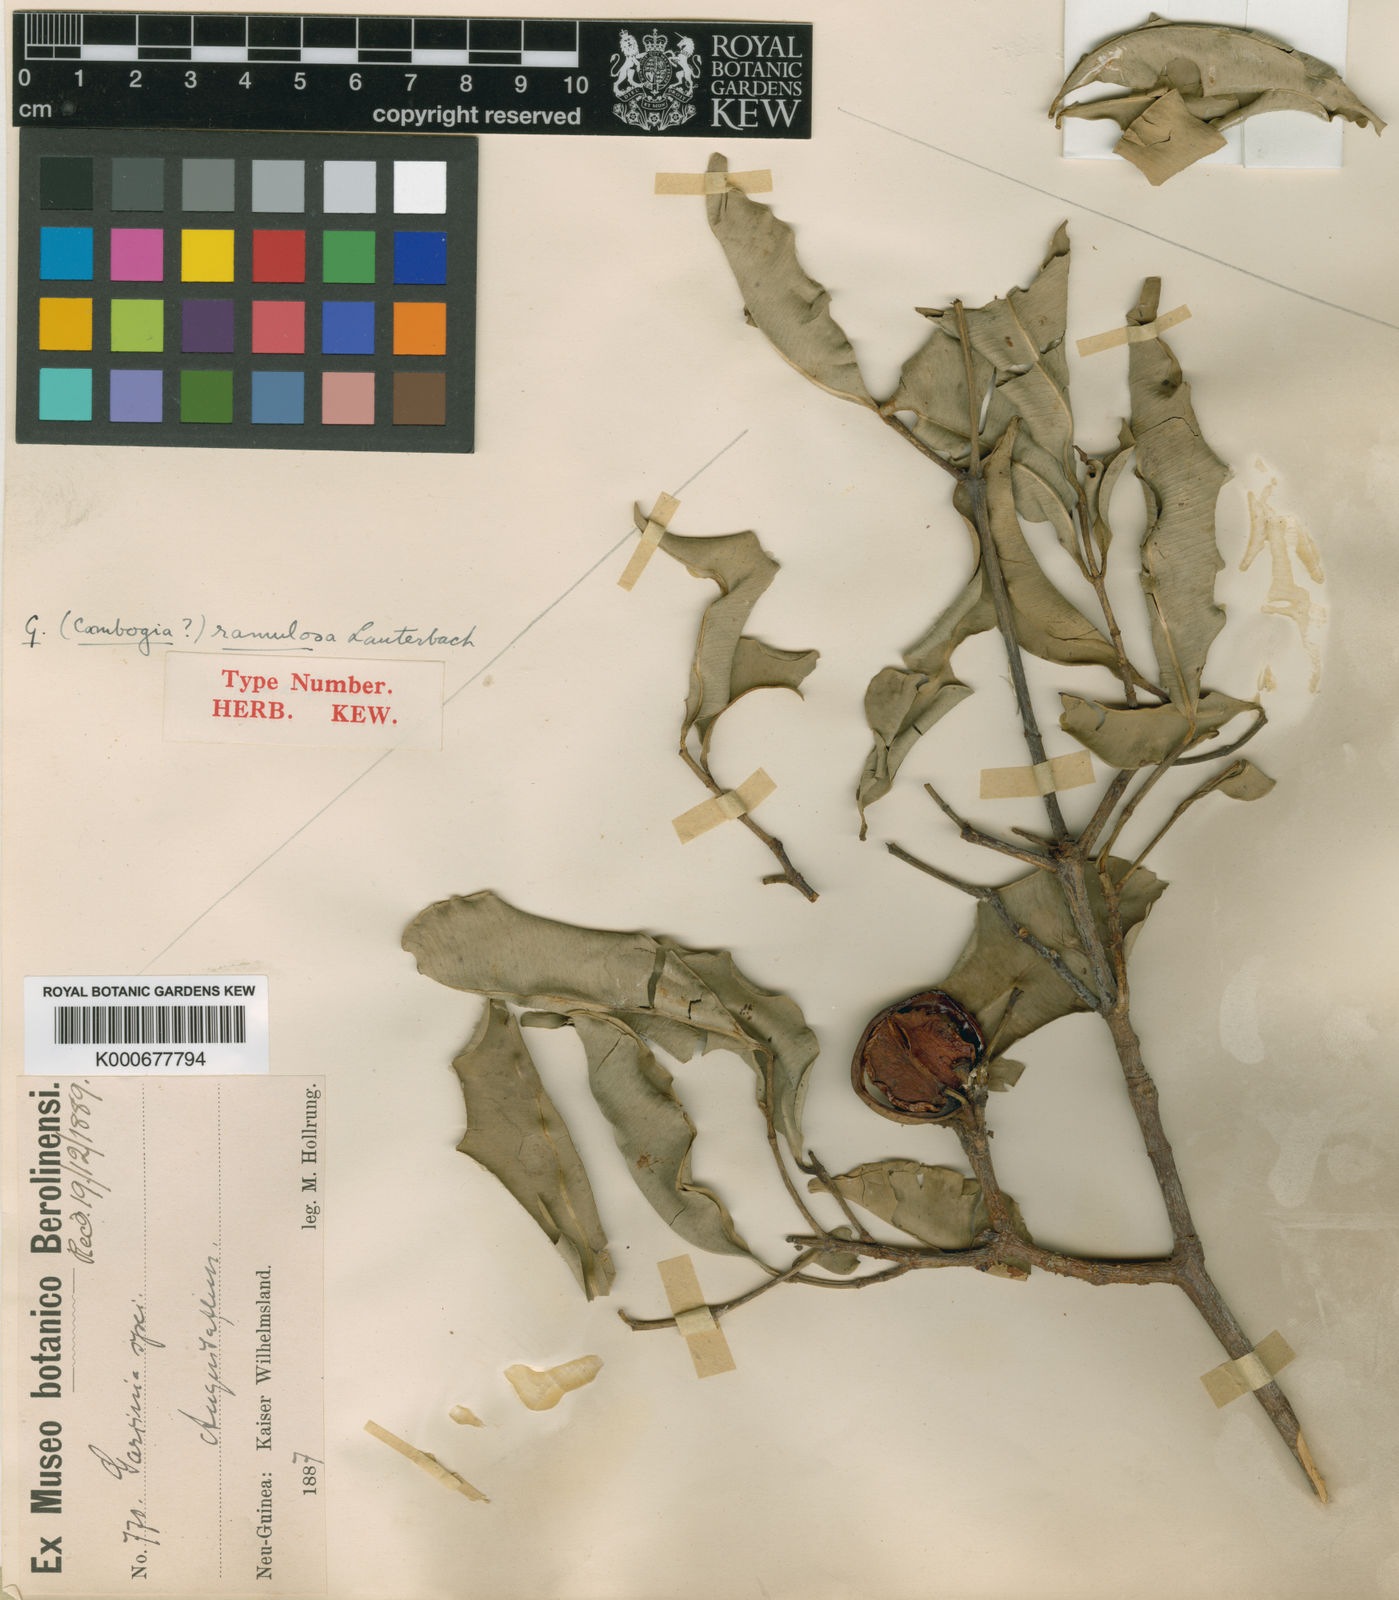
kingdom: Plantae
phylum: Tracheophyta
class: Magnoliopsida
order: Malpighiales
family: Clusiaceae
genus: Garcinia
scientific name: Garcinia ramulosa
